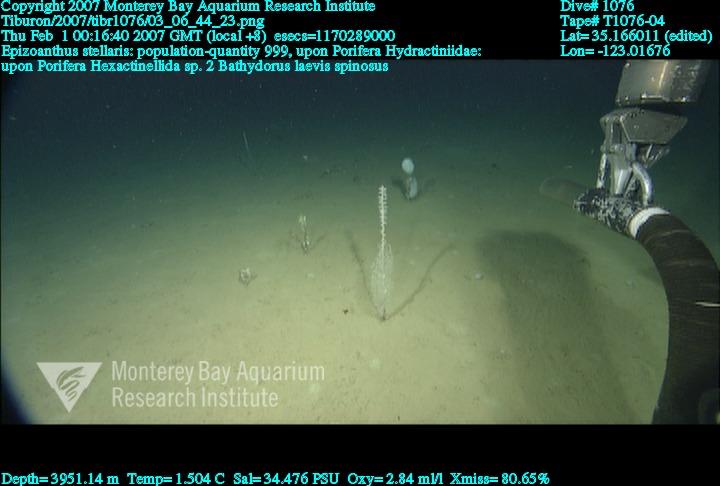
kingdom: Animalia
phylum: Porifera
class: Hexactinellida
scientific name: Hexactinellida
